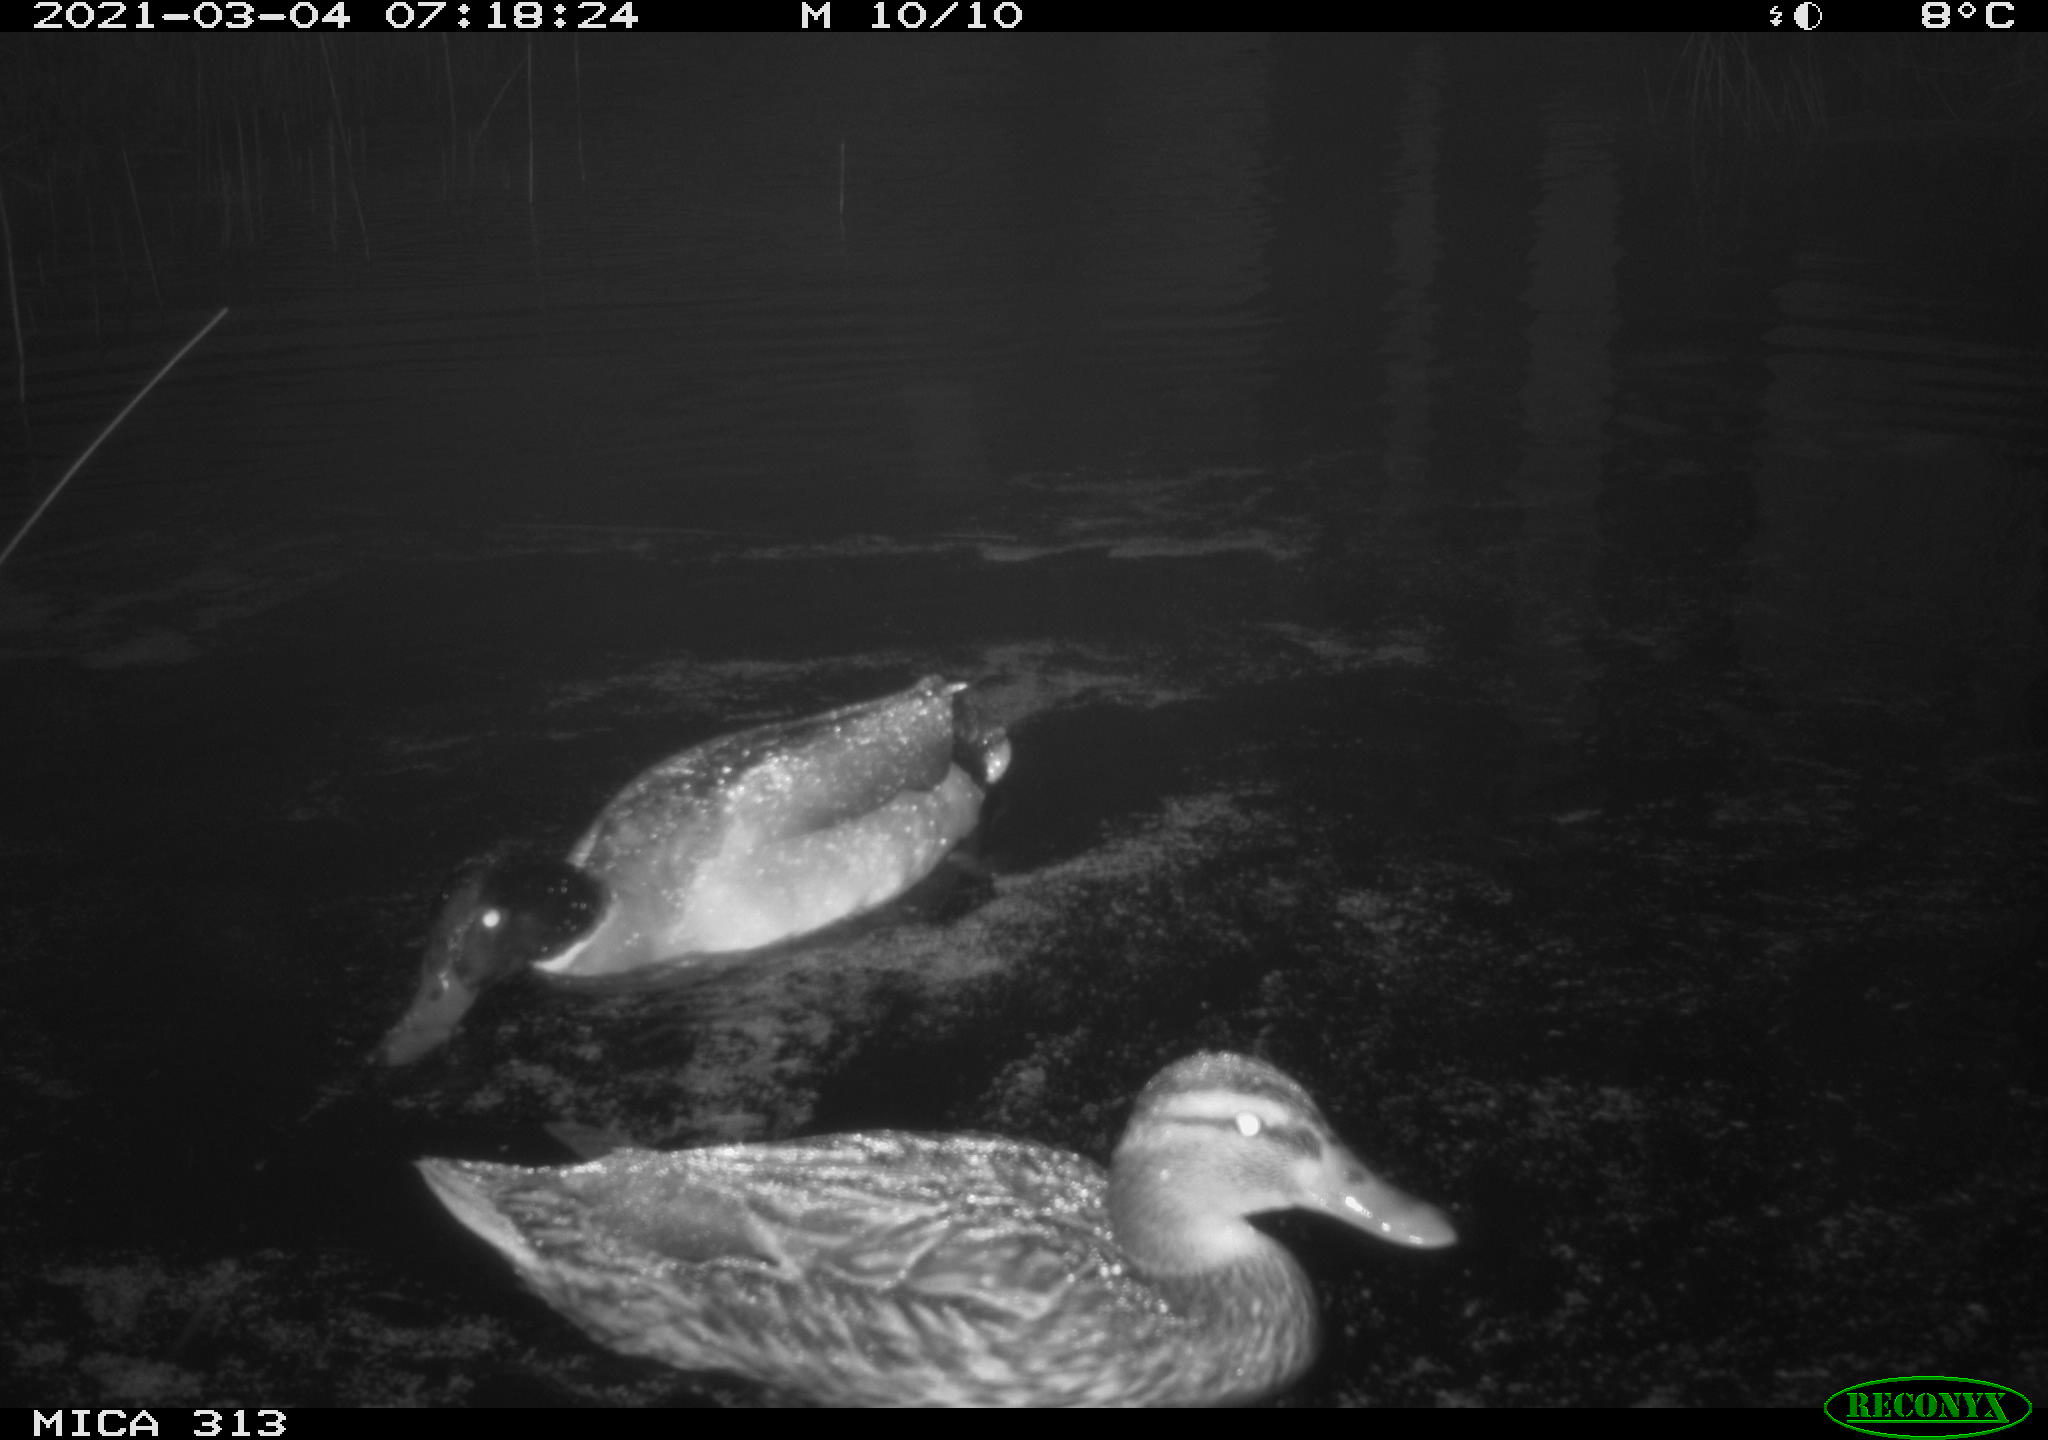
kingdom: Animalia
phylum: Chordata
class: Aves
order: Anseriformes
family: Anatidae
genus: Mareca
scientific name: Mareca strepera
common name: Gadwall
